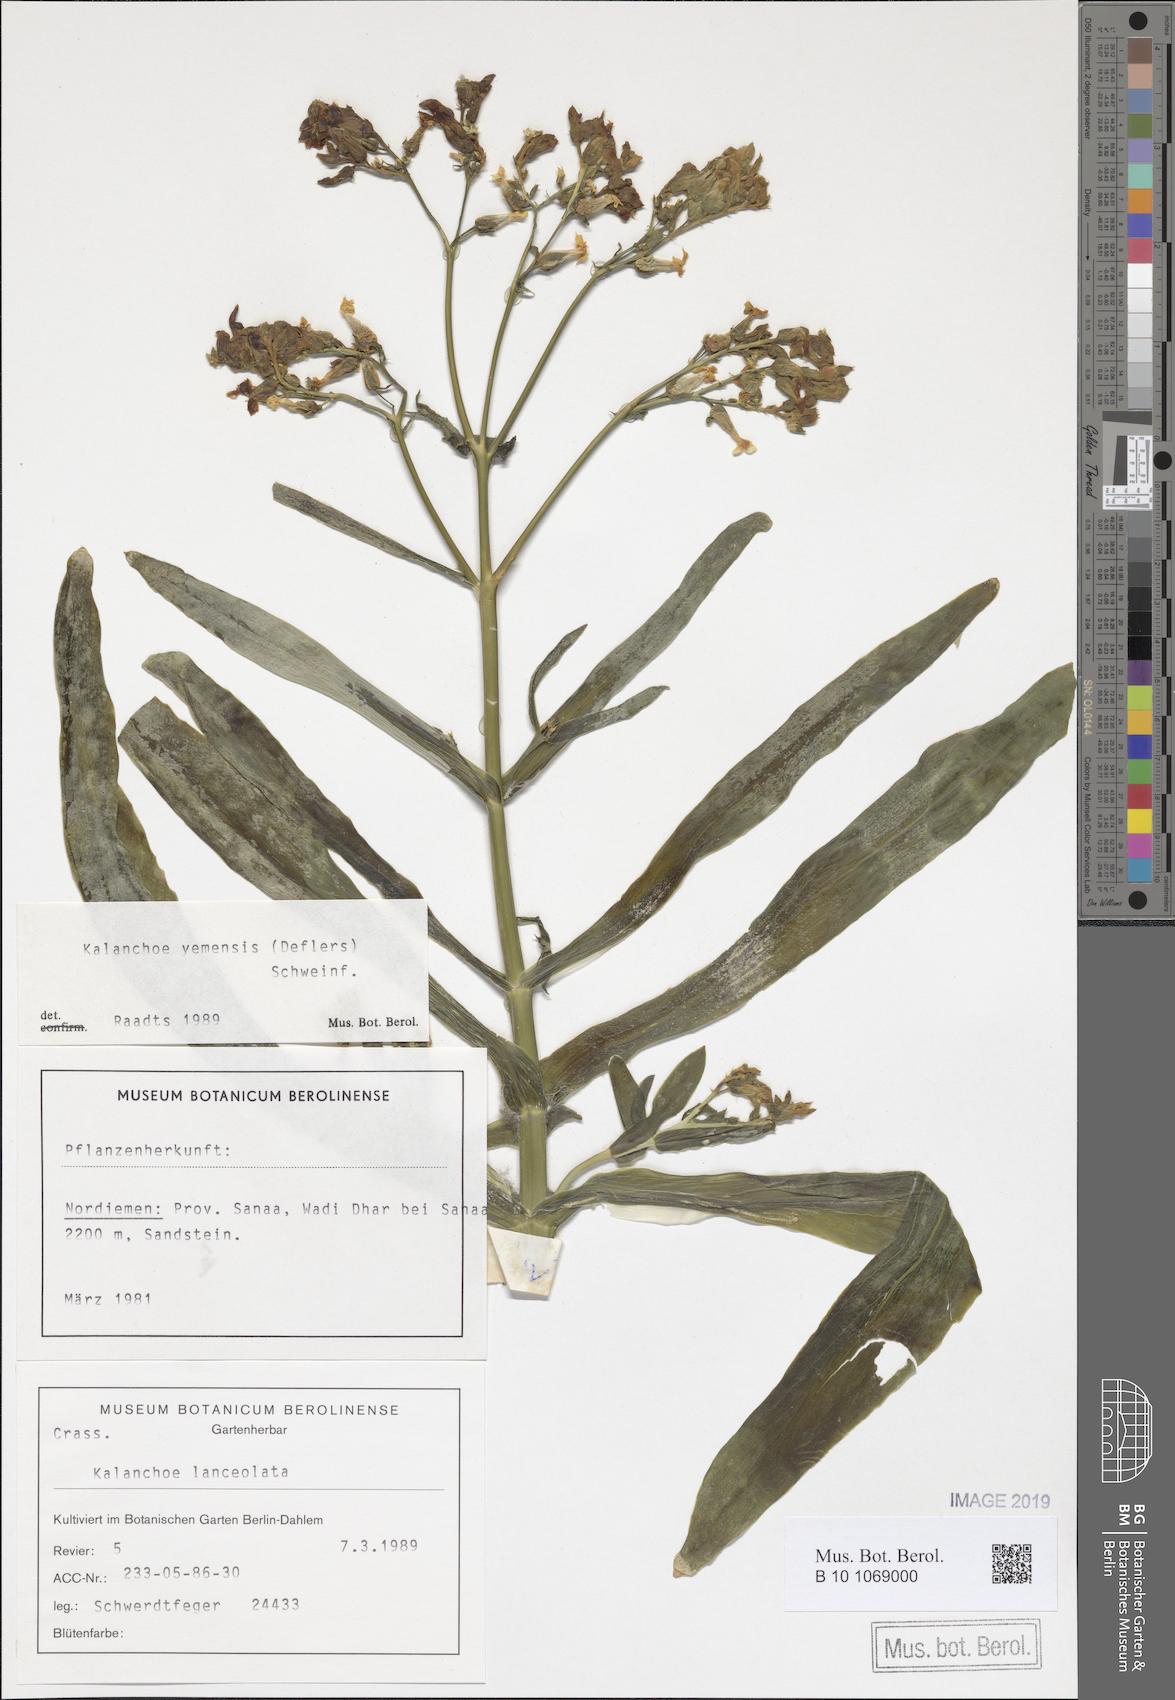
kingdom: Plantae
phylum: Tracheophyta
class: Magnoliopsida
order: Saxifragales
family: Crassulaceae
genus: Kalanchoe
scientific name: Kalanchoe yemensis
